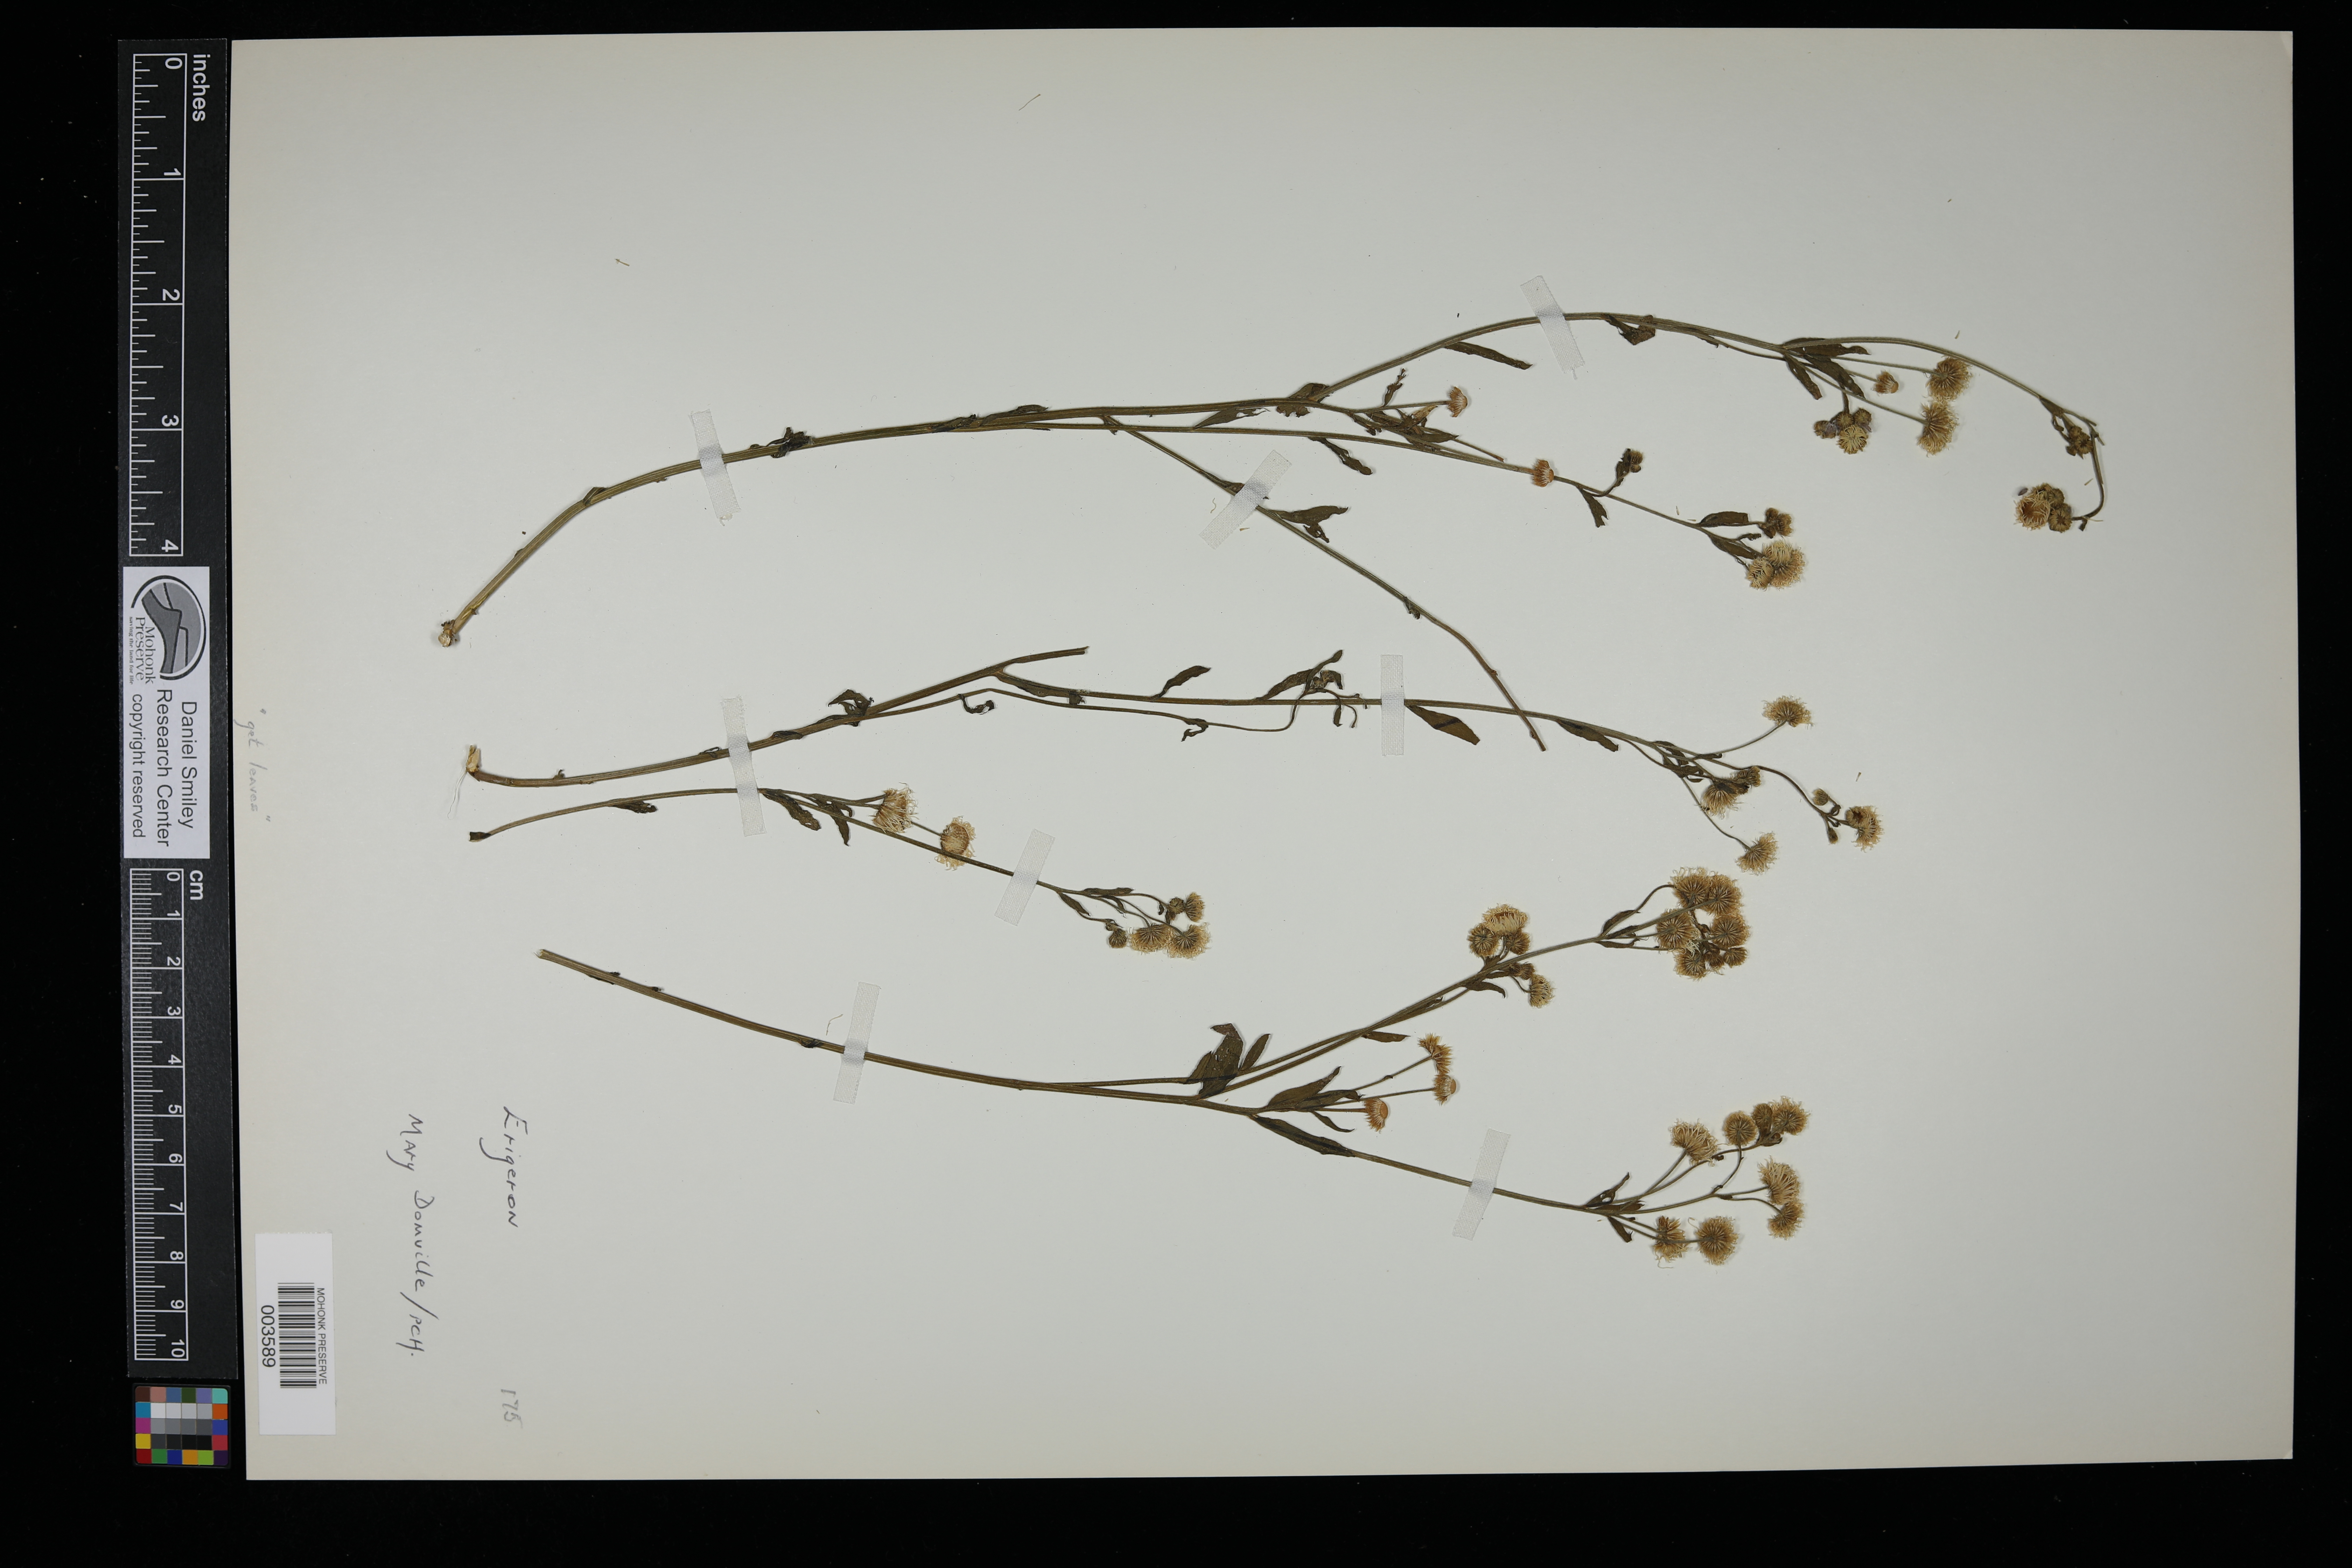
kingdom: Plantae
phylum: Tracheophyta
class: Magnoliopsida
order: Asterales
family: Asteraceae
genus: Erigeron
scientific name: Erigeron
